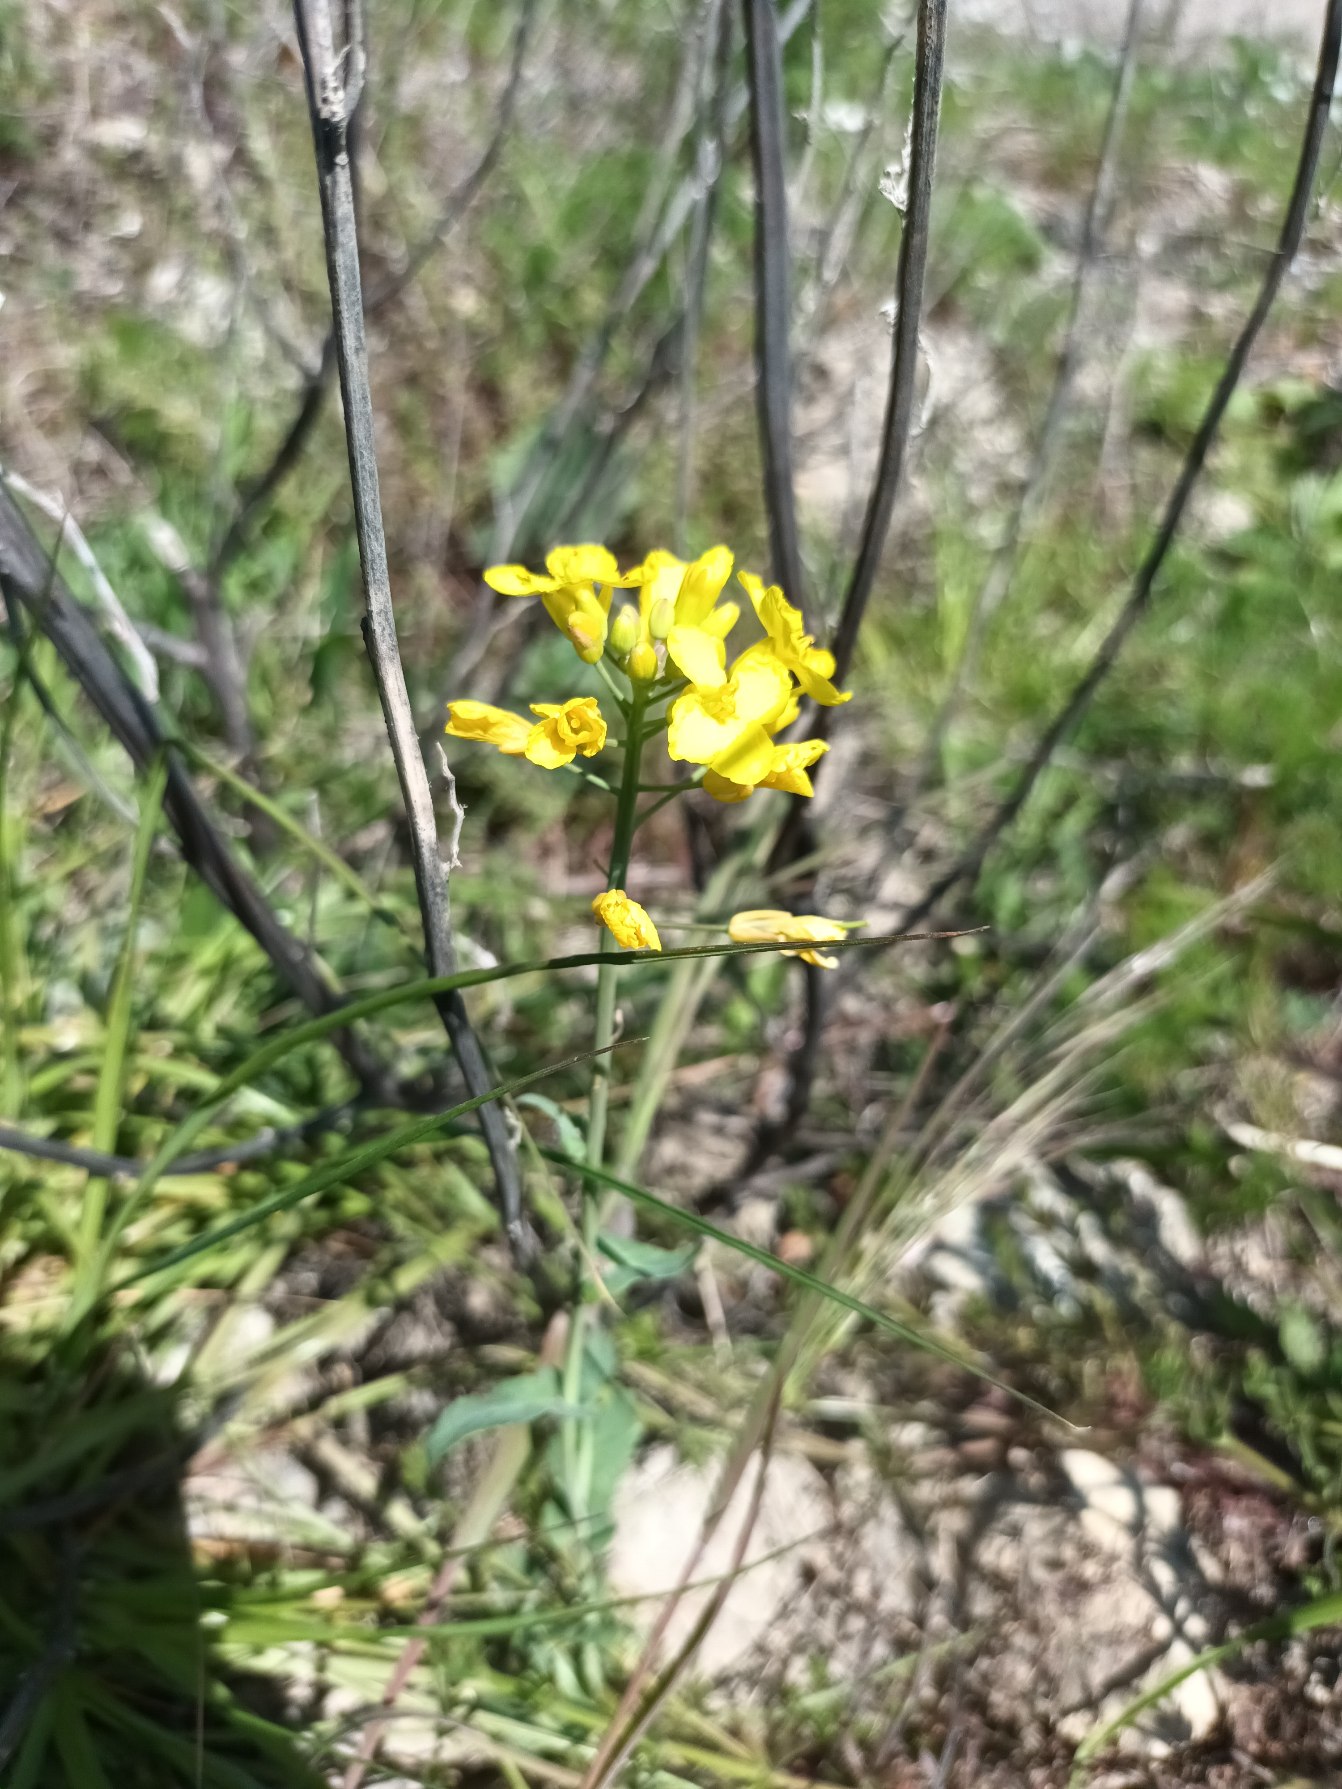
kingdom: Plantae
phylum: Tracheophyta
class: Magnoliopsida
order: Brassicales
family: Brassicaceae
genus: Brassica
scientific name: Brassica rapa
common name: Ager-kål
